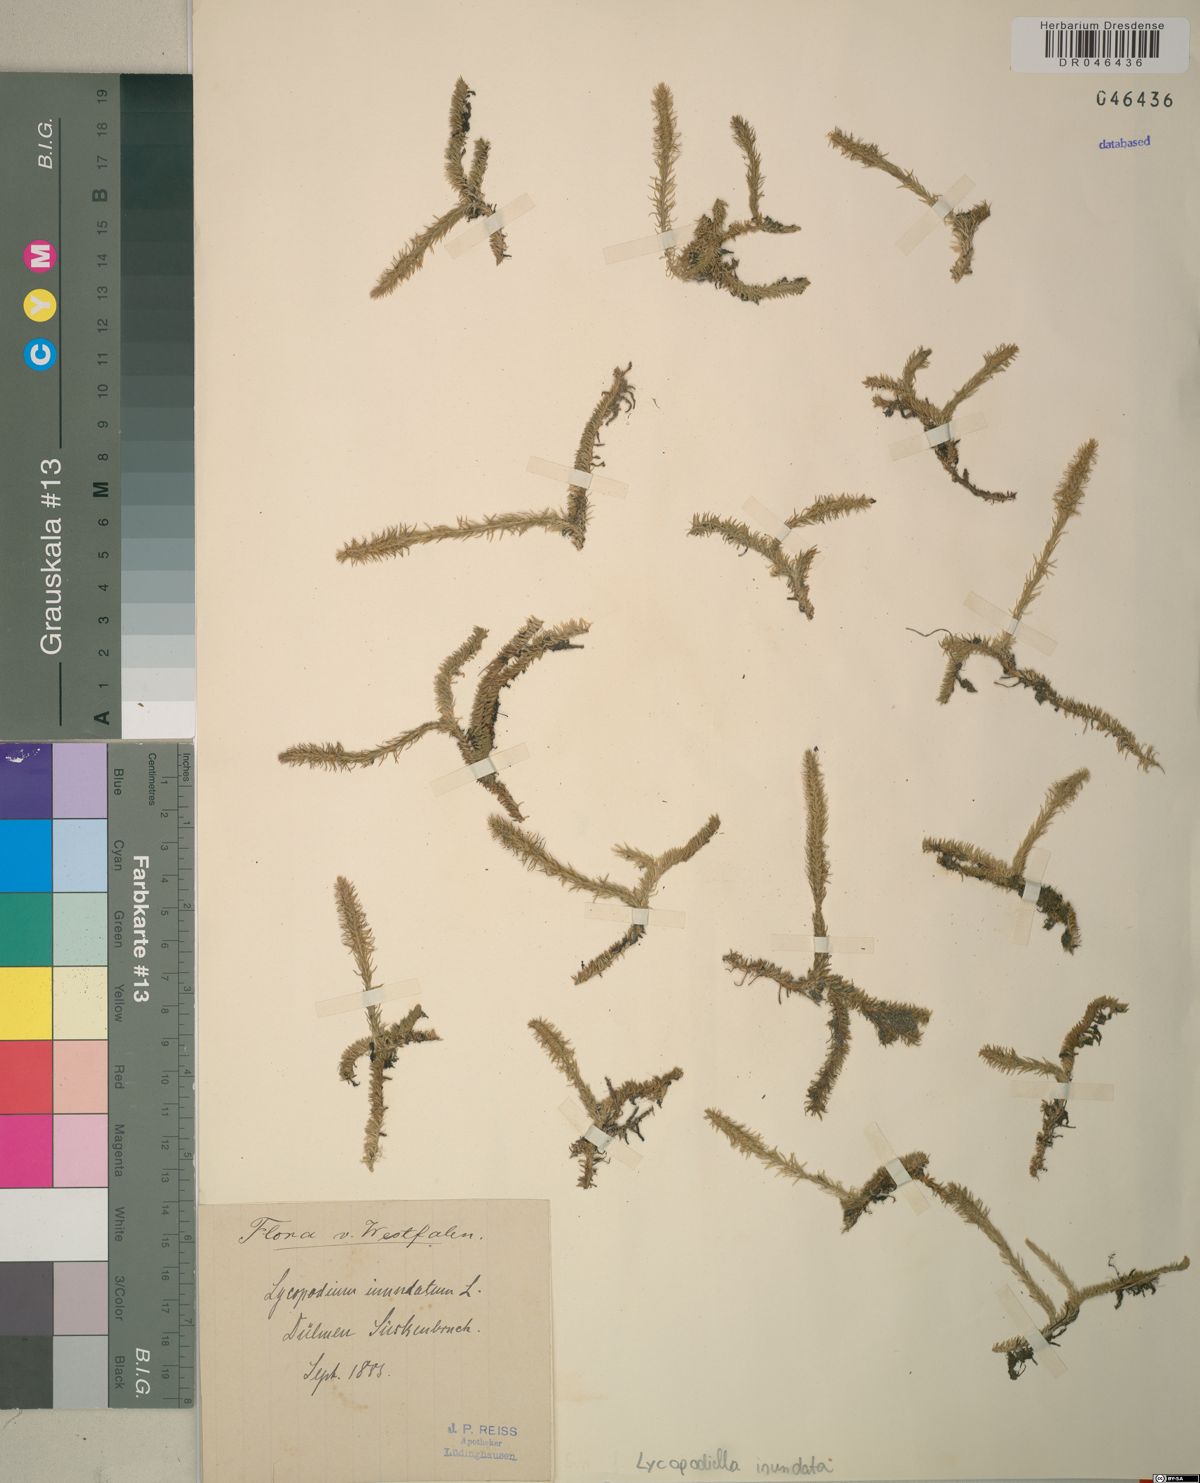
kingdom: Plantae
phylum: Tracheophyta
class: Lycopodiopsida
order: Lycopodiales
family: Lycopodiaceae
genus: Lycopodiella
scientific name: Lycopodiella inundata
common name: Marsh clubmoss
